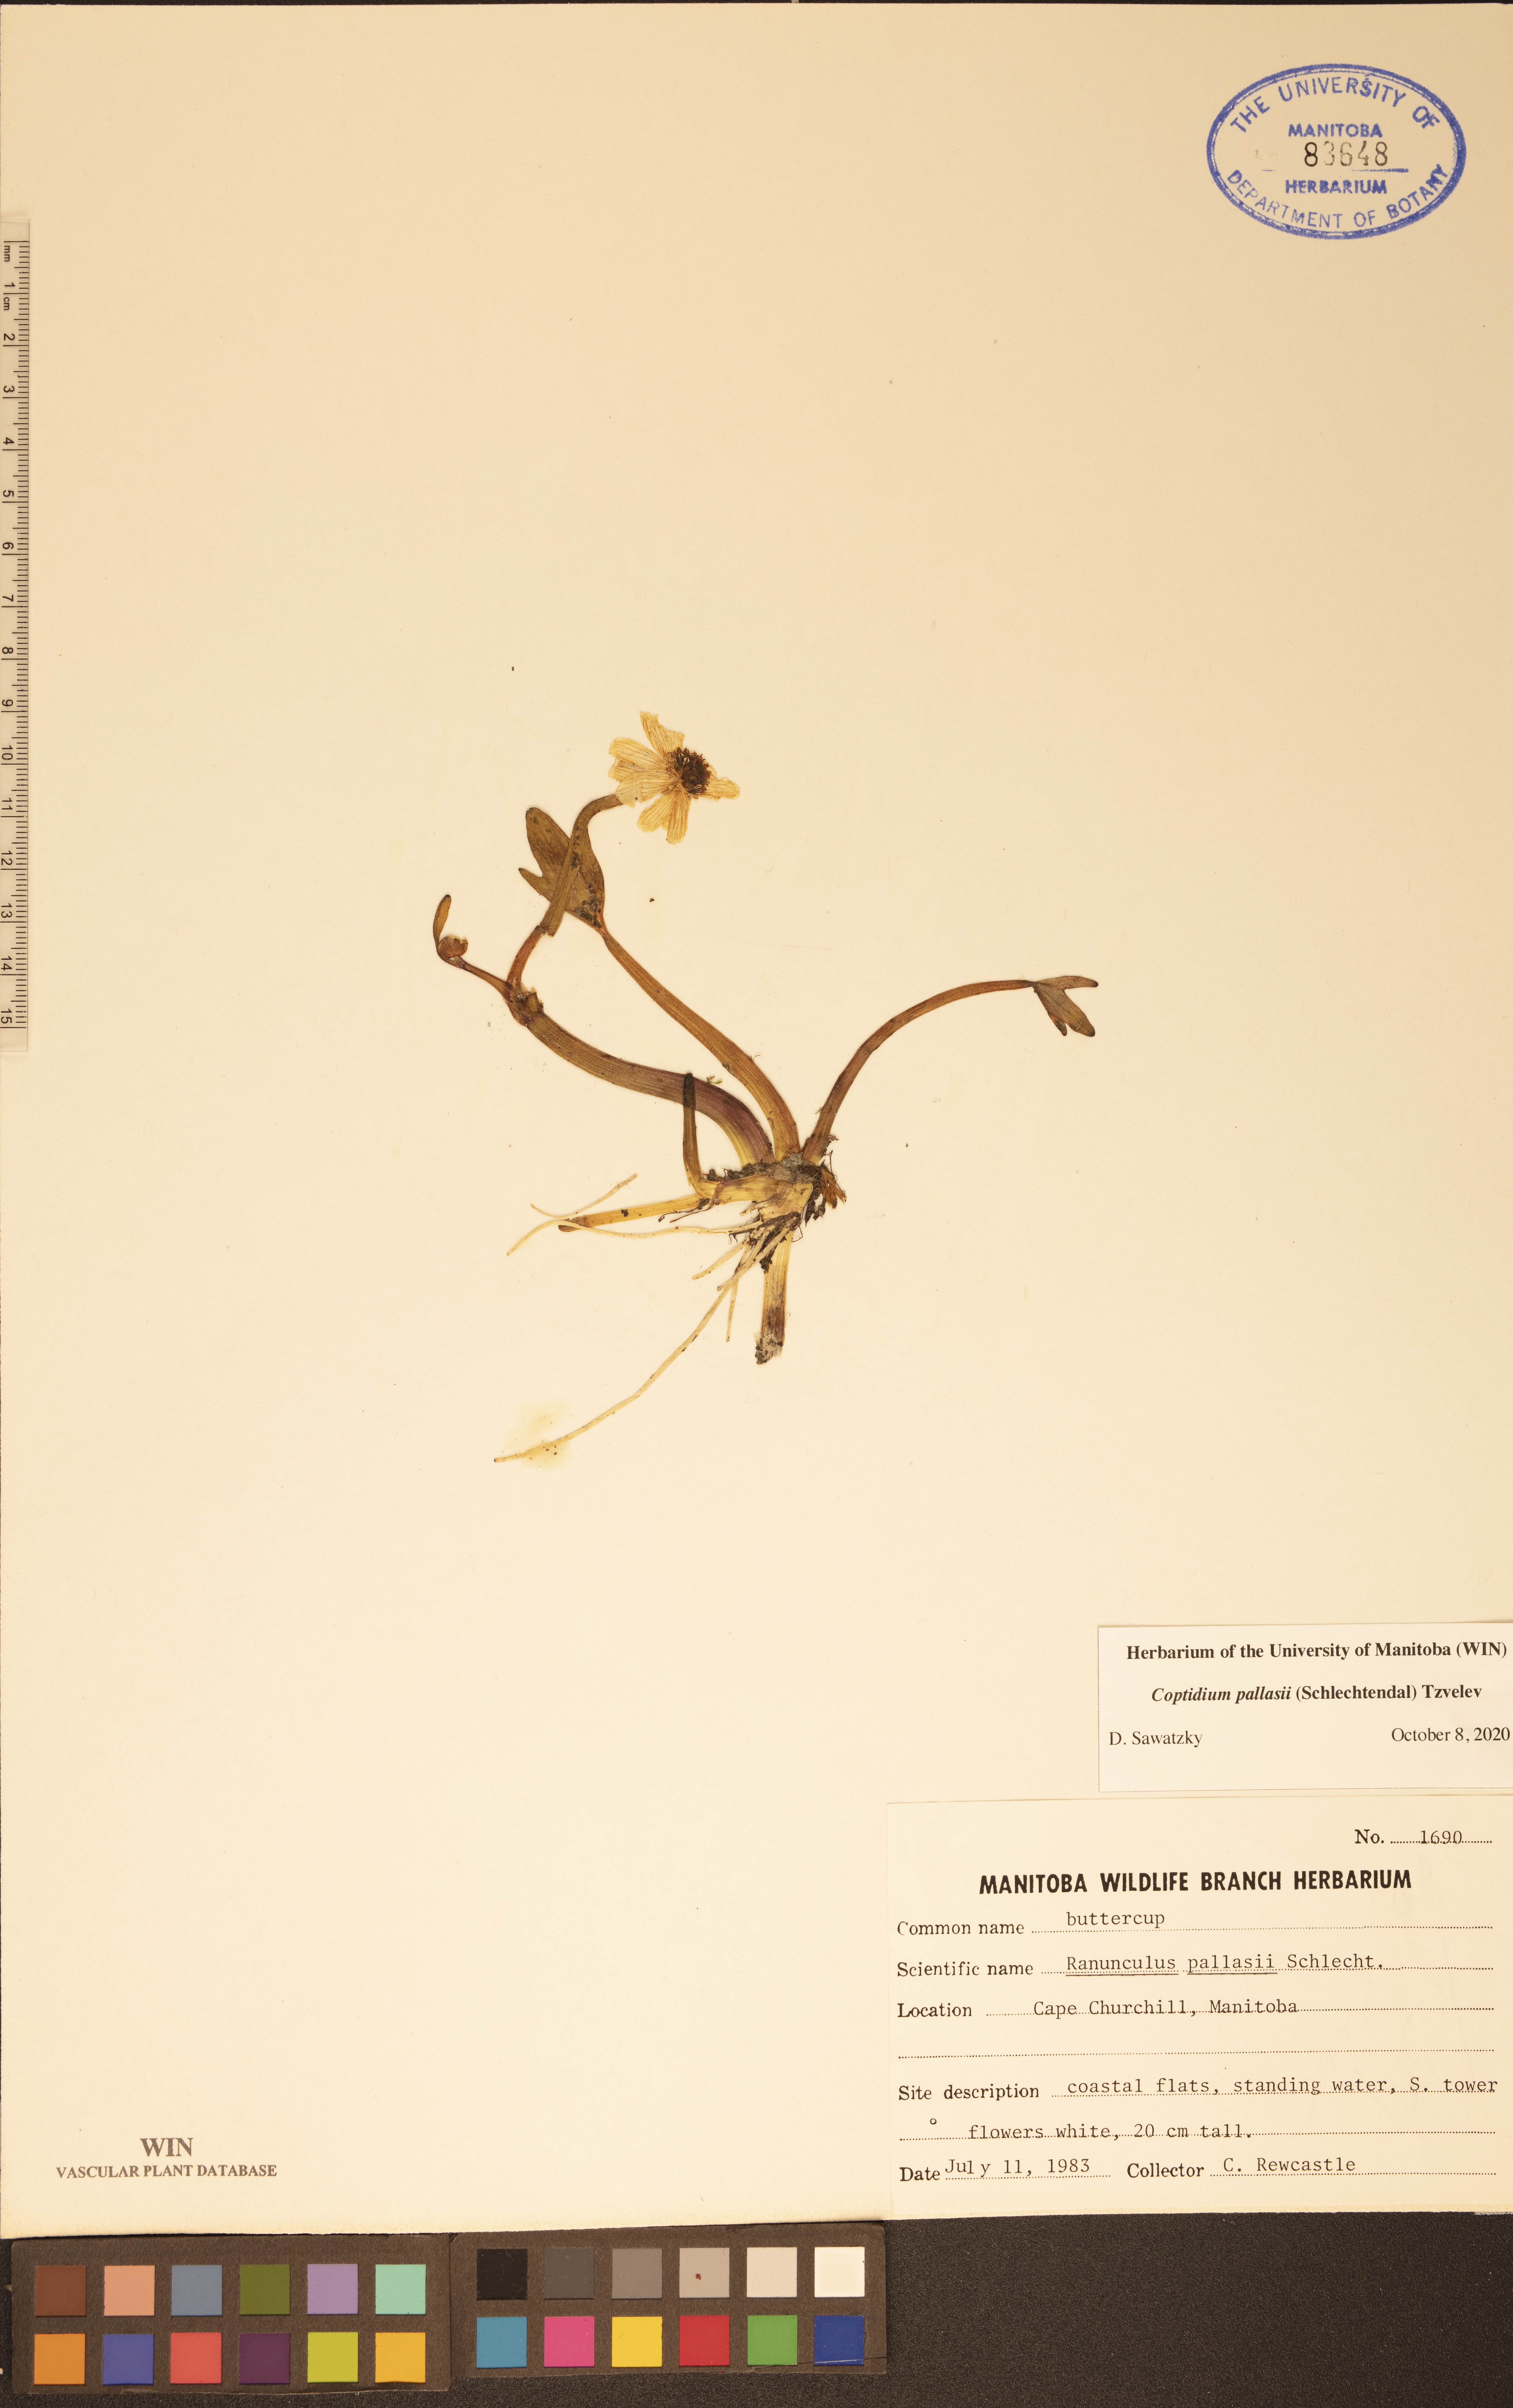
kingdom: Plantae
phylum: Tracheophyta
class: Magnoliopsida
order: Ranunculales
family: Ranunculaceae
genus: Coptidium
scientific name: Coptidium pallasii
